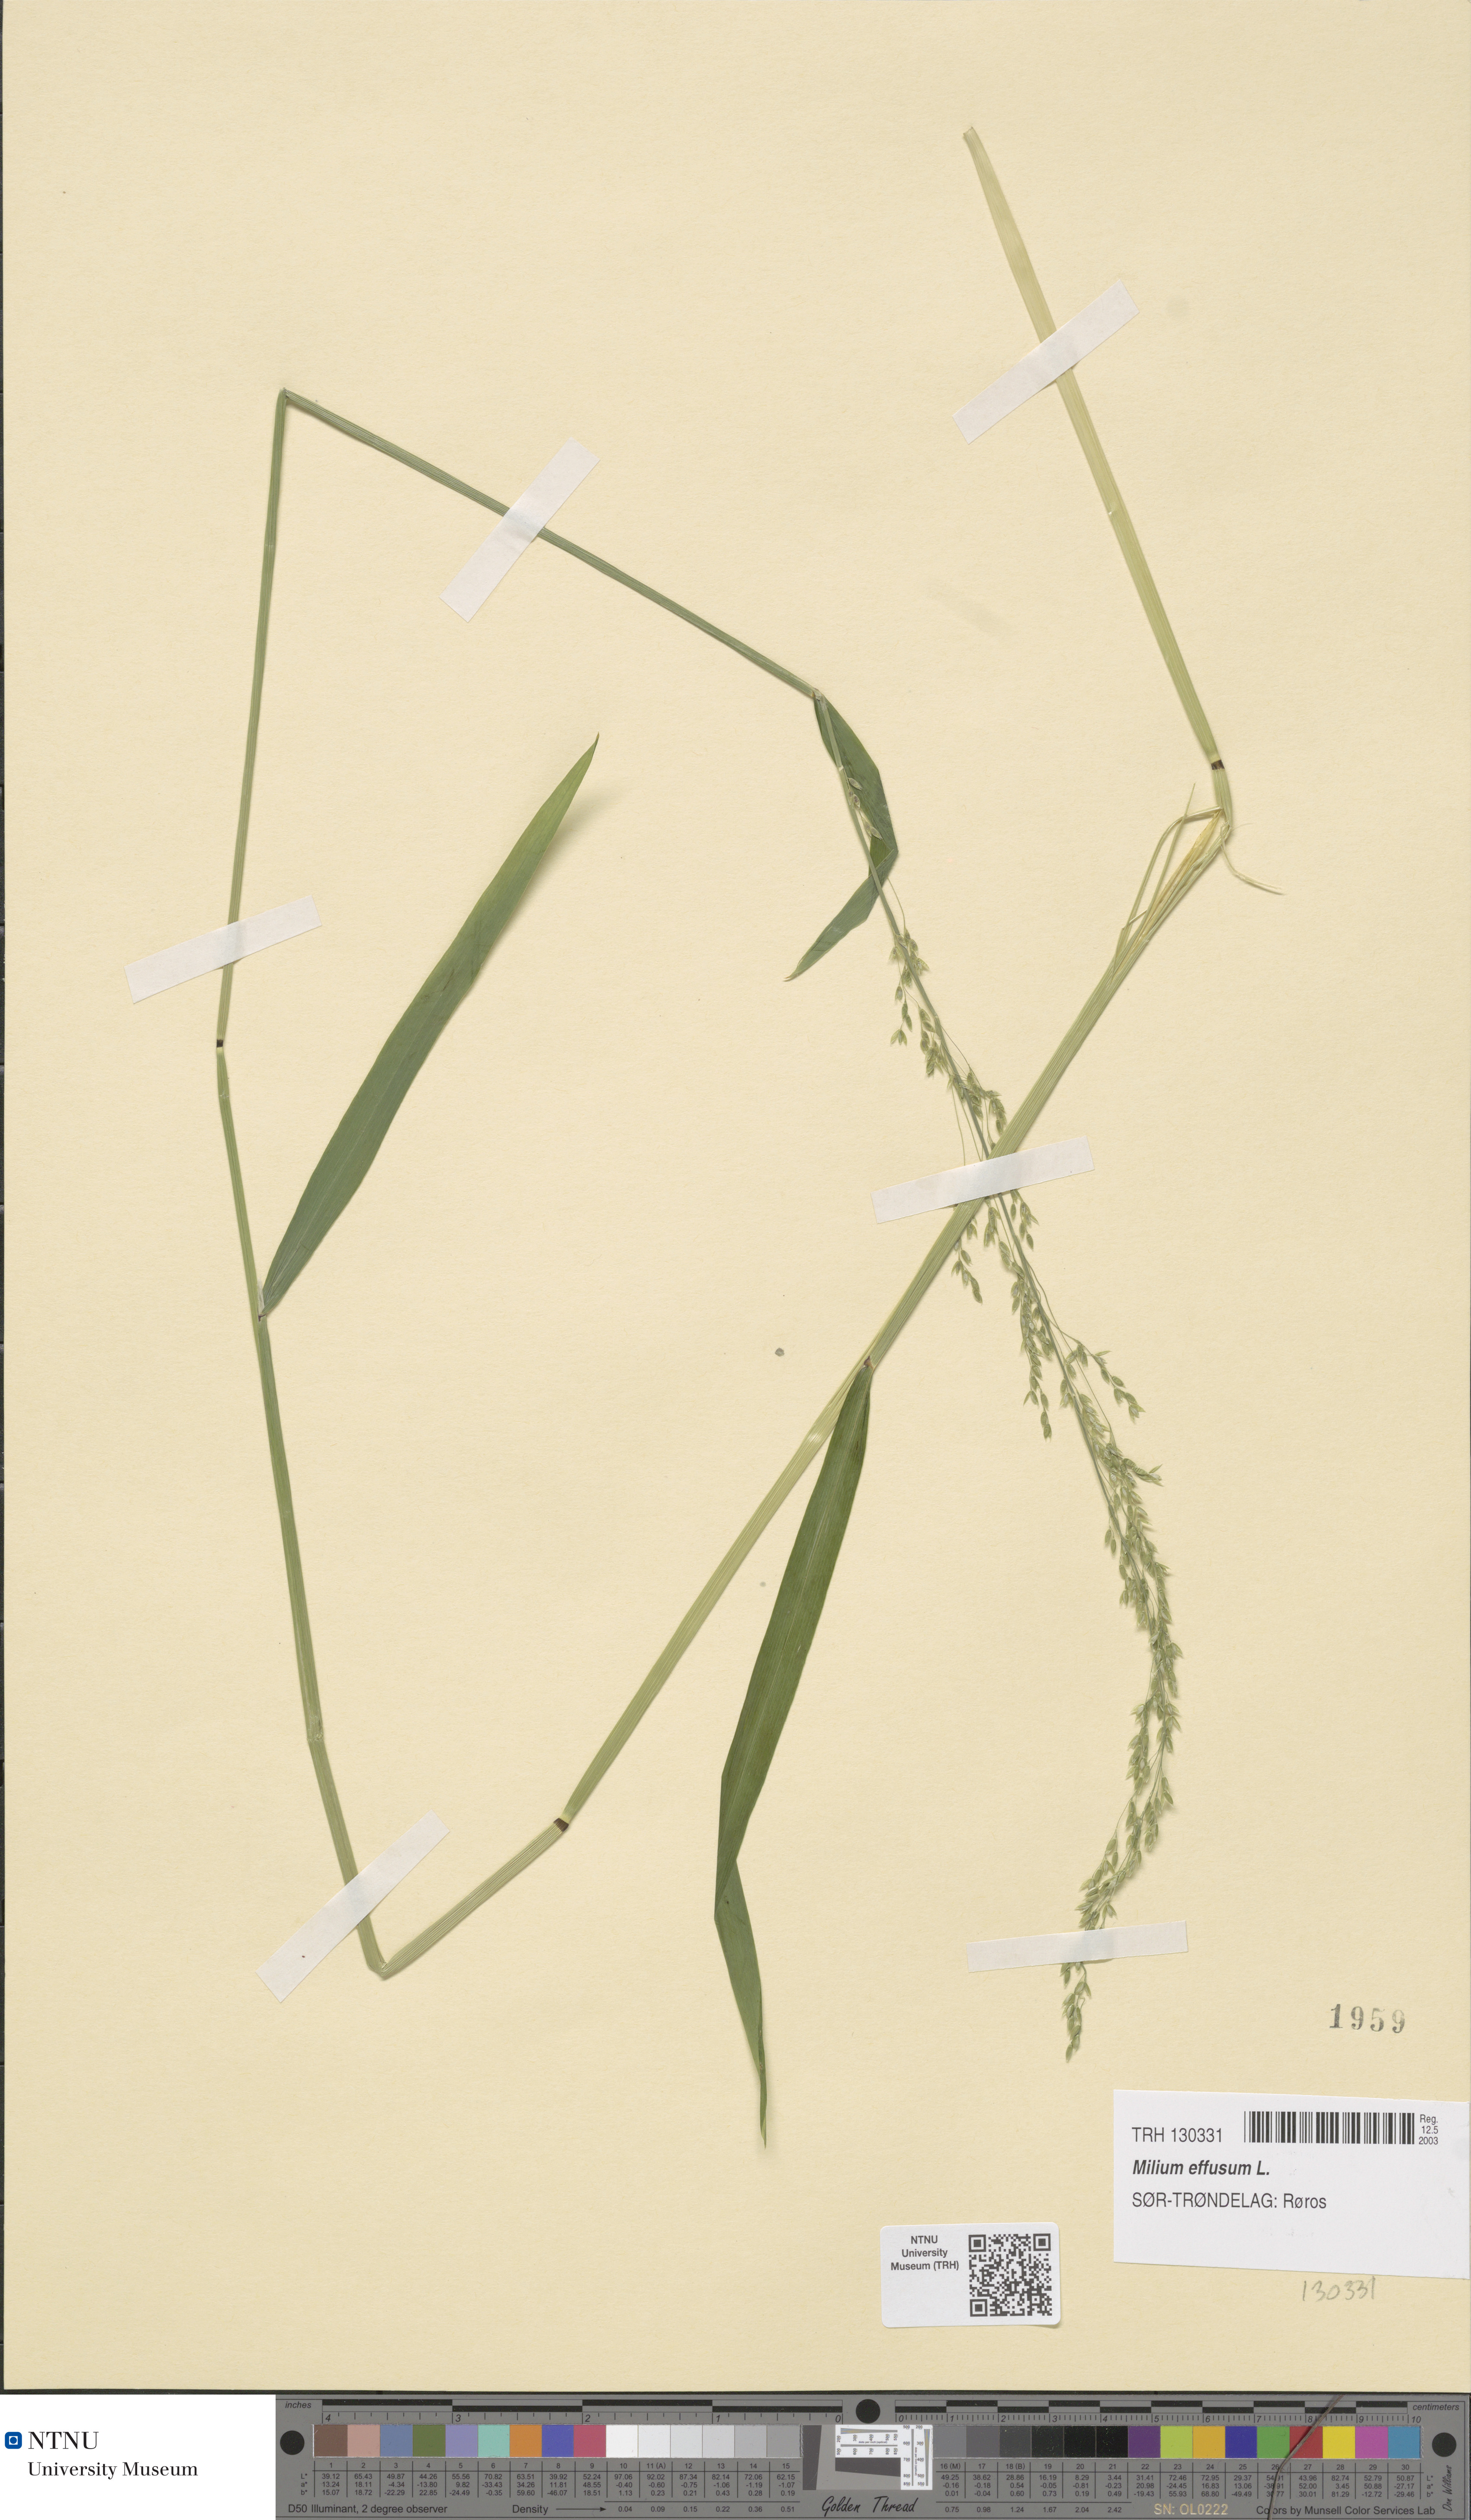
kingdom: Plantae
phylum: Tracheophyta
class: Liliopsida
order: Poales
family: Poaceae
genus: Milium
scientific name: Milium effusum
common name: Wood millet
